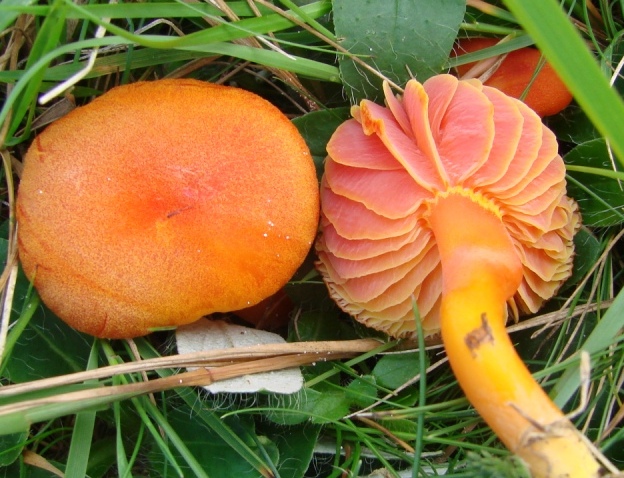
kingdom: Fungi
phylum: Basidiomycota
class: Agaricomycetes
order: Agaricales
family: Hygrophoraceae
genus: Hygrocybe
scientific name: Hygrocybe miniata
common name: mønje-vokshat
